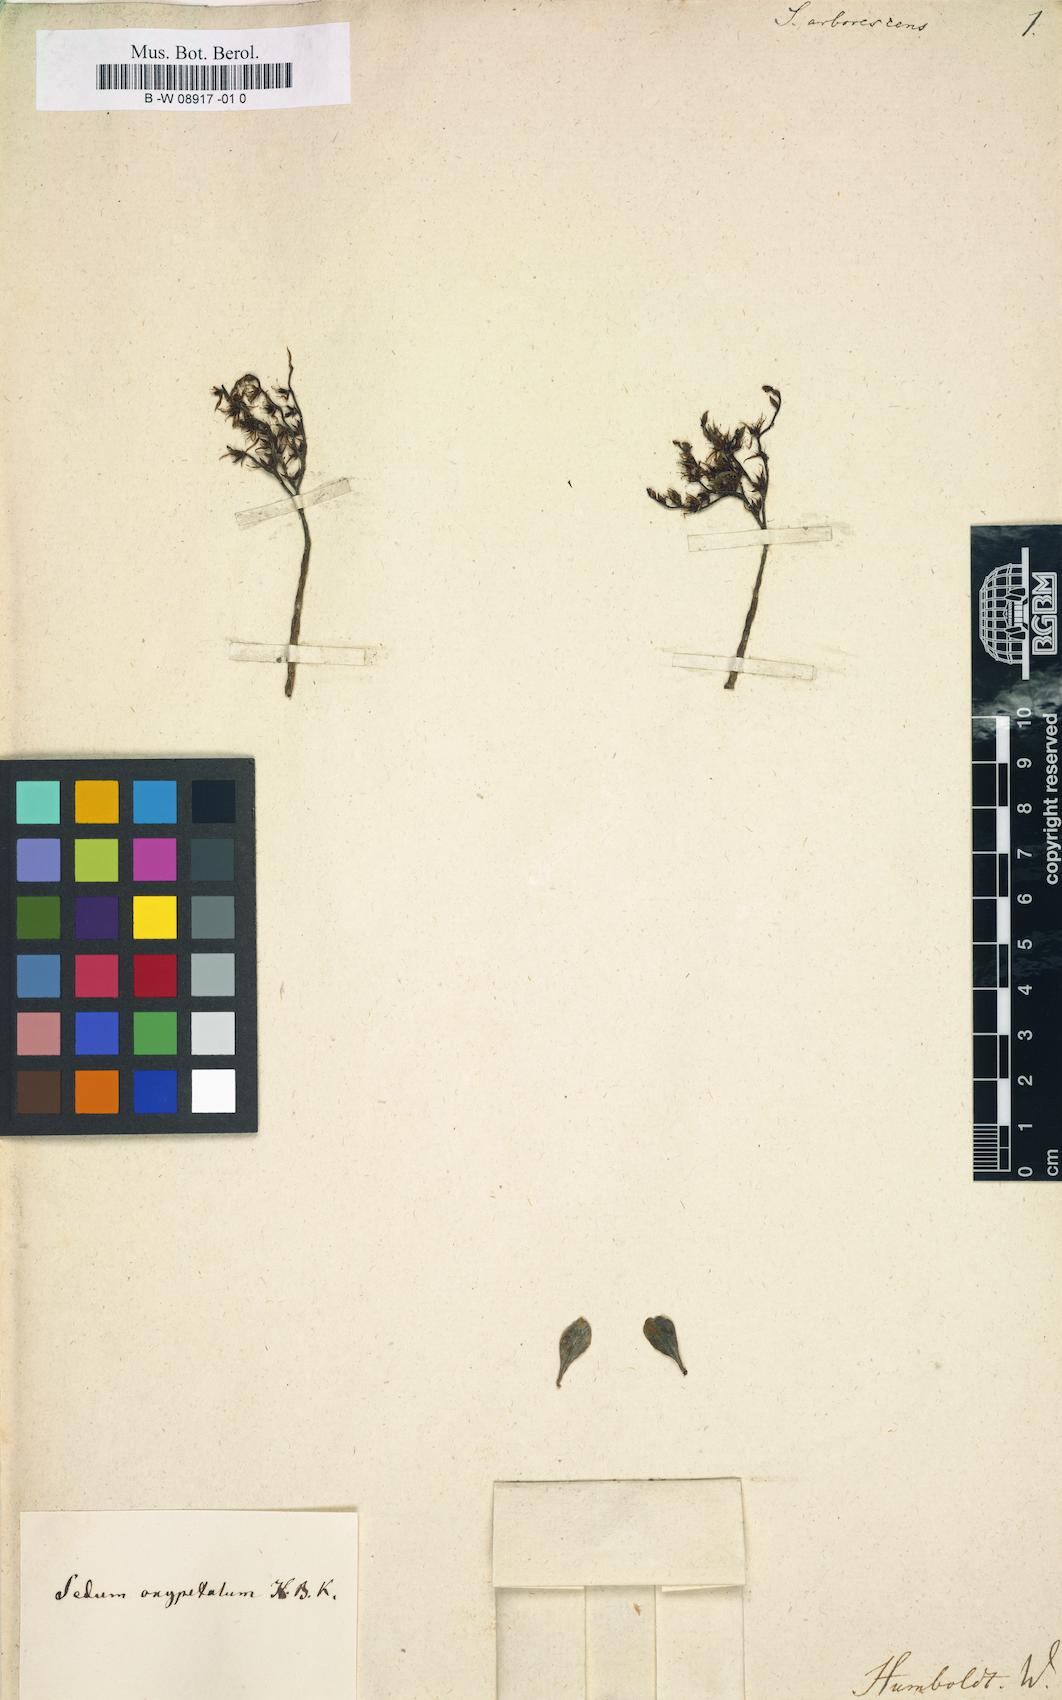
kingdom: Plantae
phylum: Tracheophyta
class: Magnoliopsida
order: Saxifragales
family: Crassulaceae
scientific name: Crassulaceae
